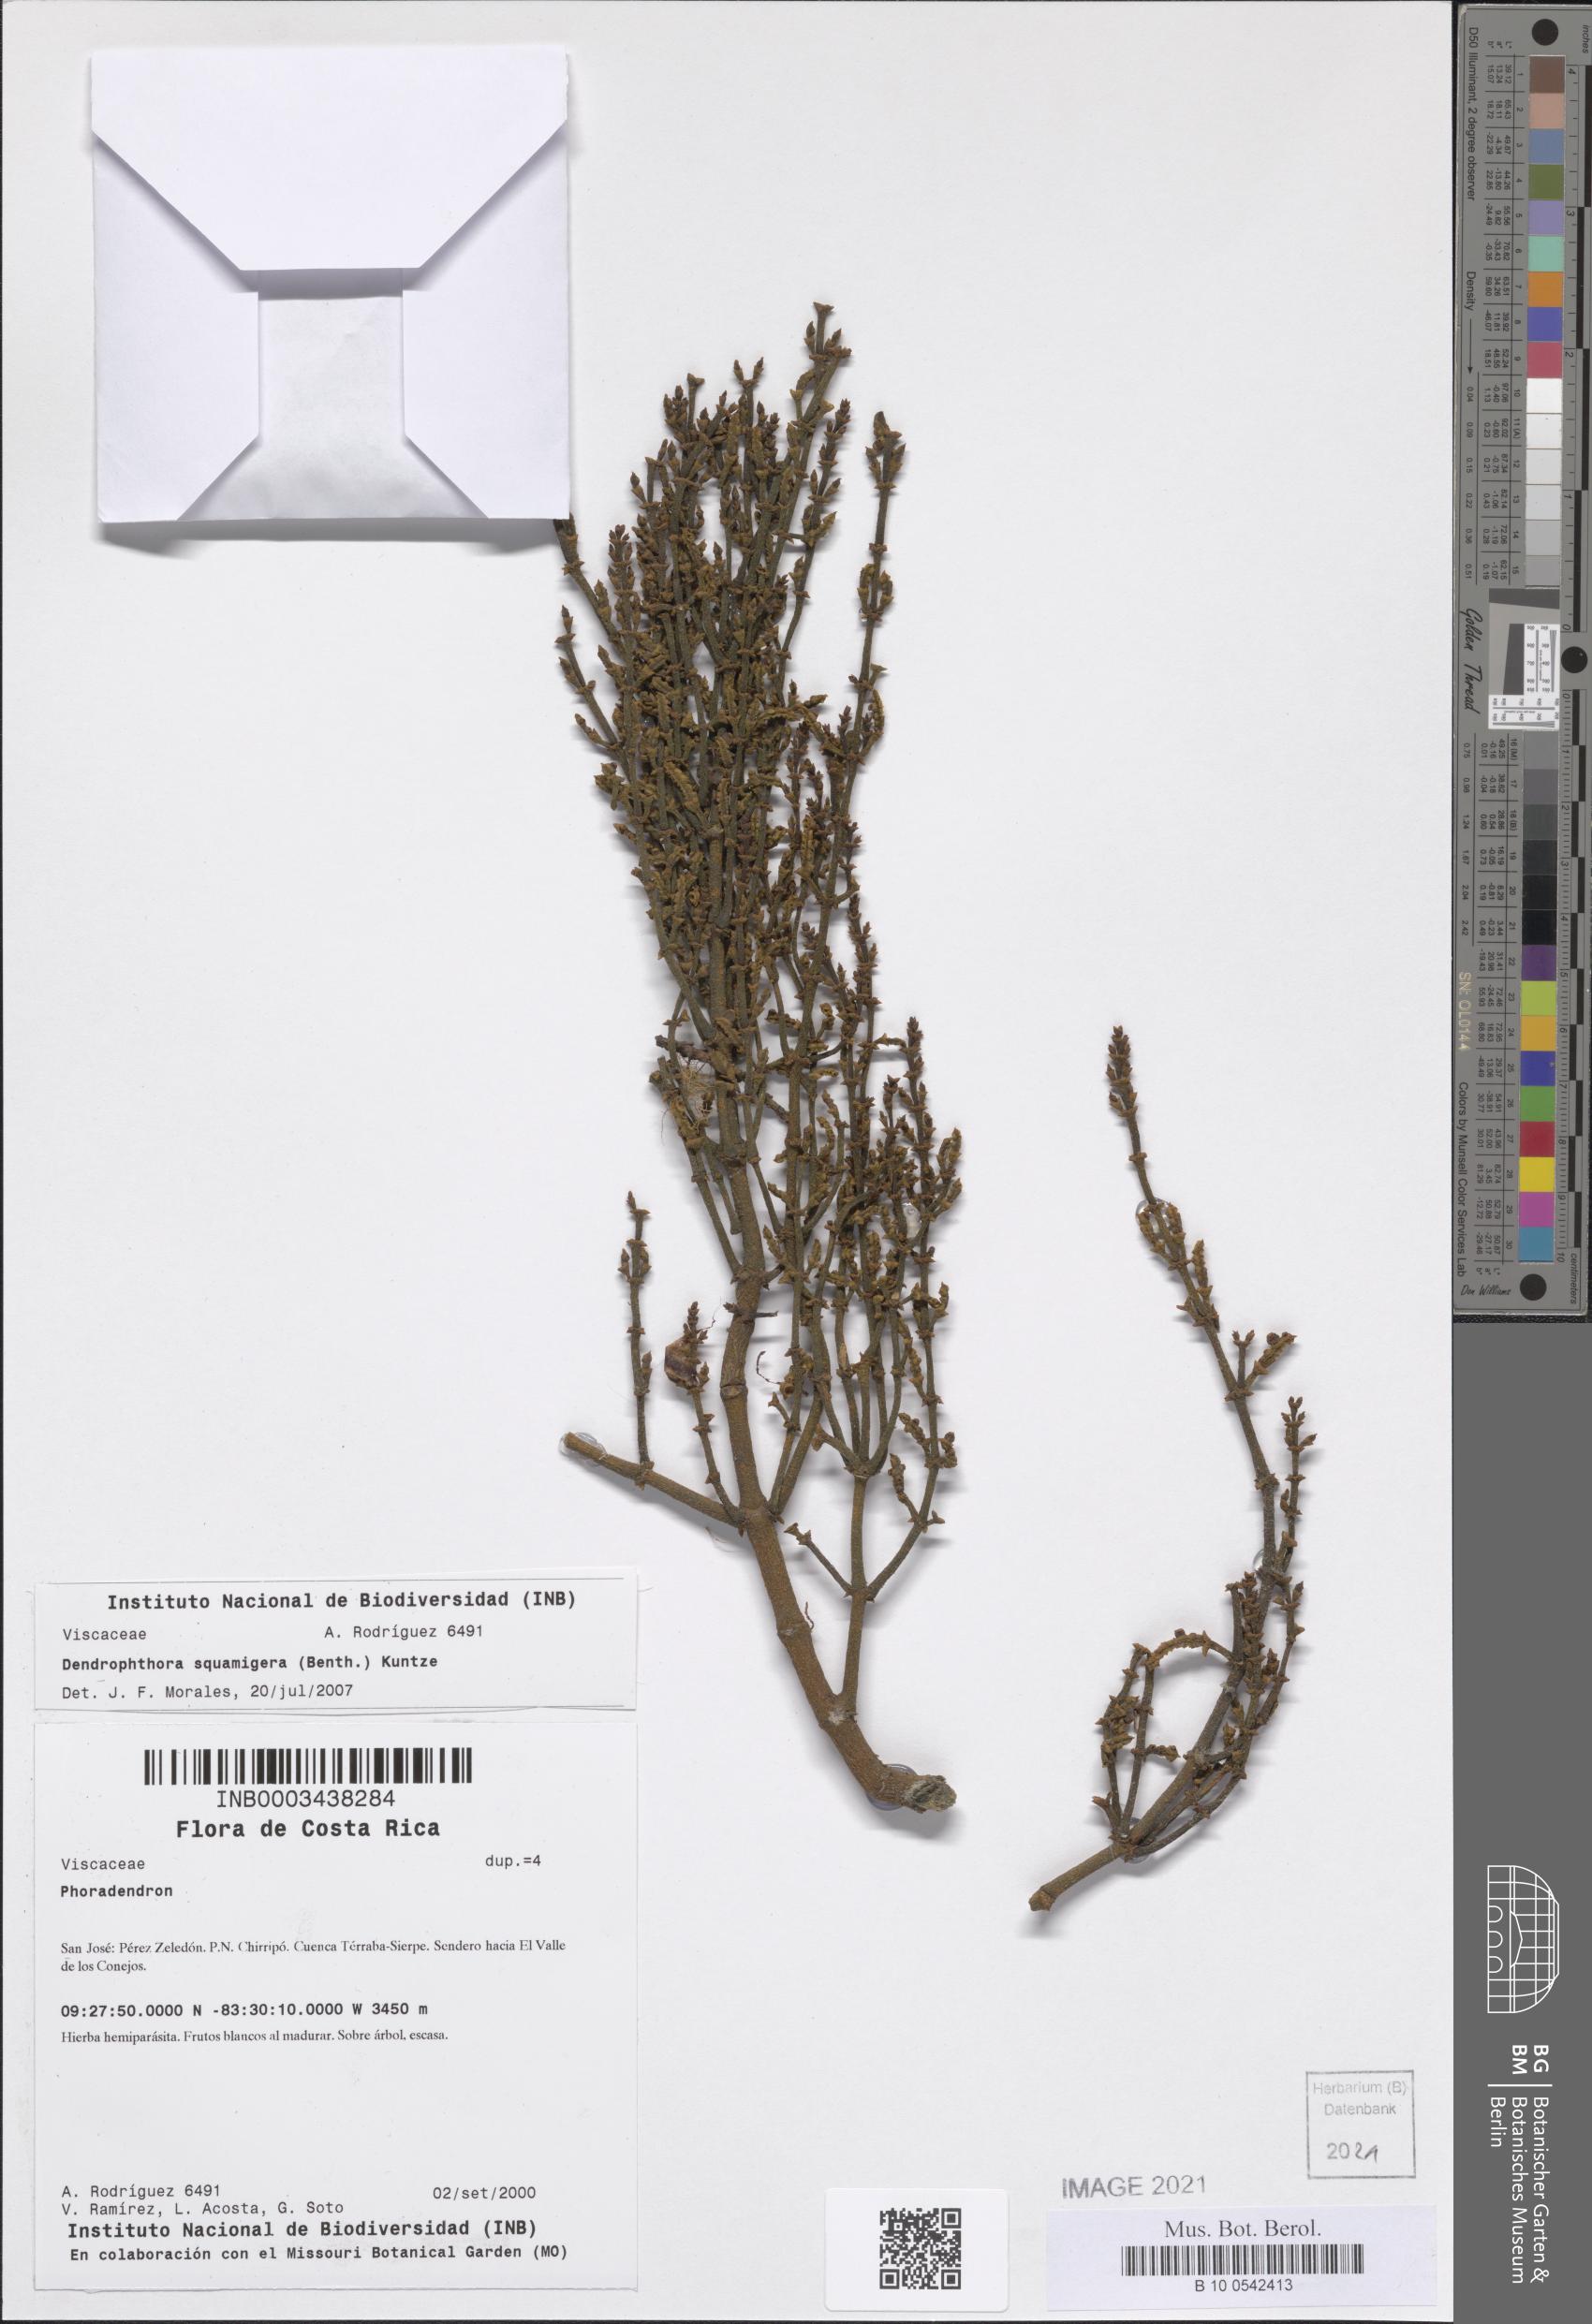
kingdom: Plantae
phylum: Tracheophyta
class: Magnoliopsida
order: Santalales
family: Viscaceae
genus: Dendrophthora
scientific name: Dendrophthora squamigera
